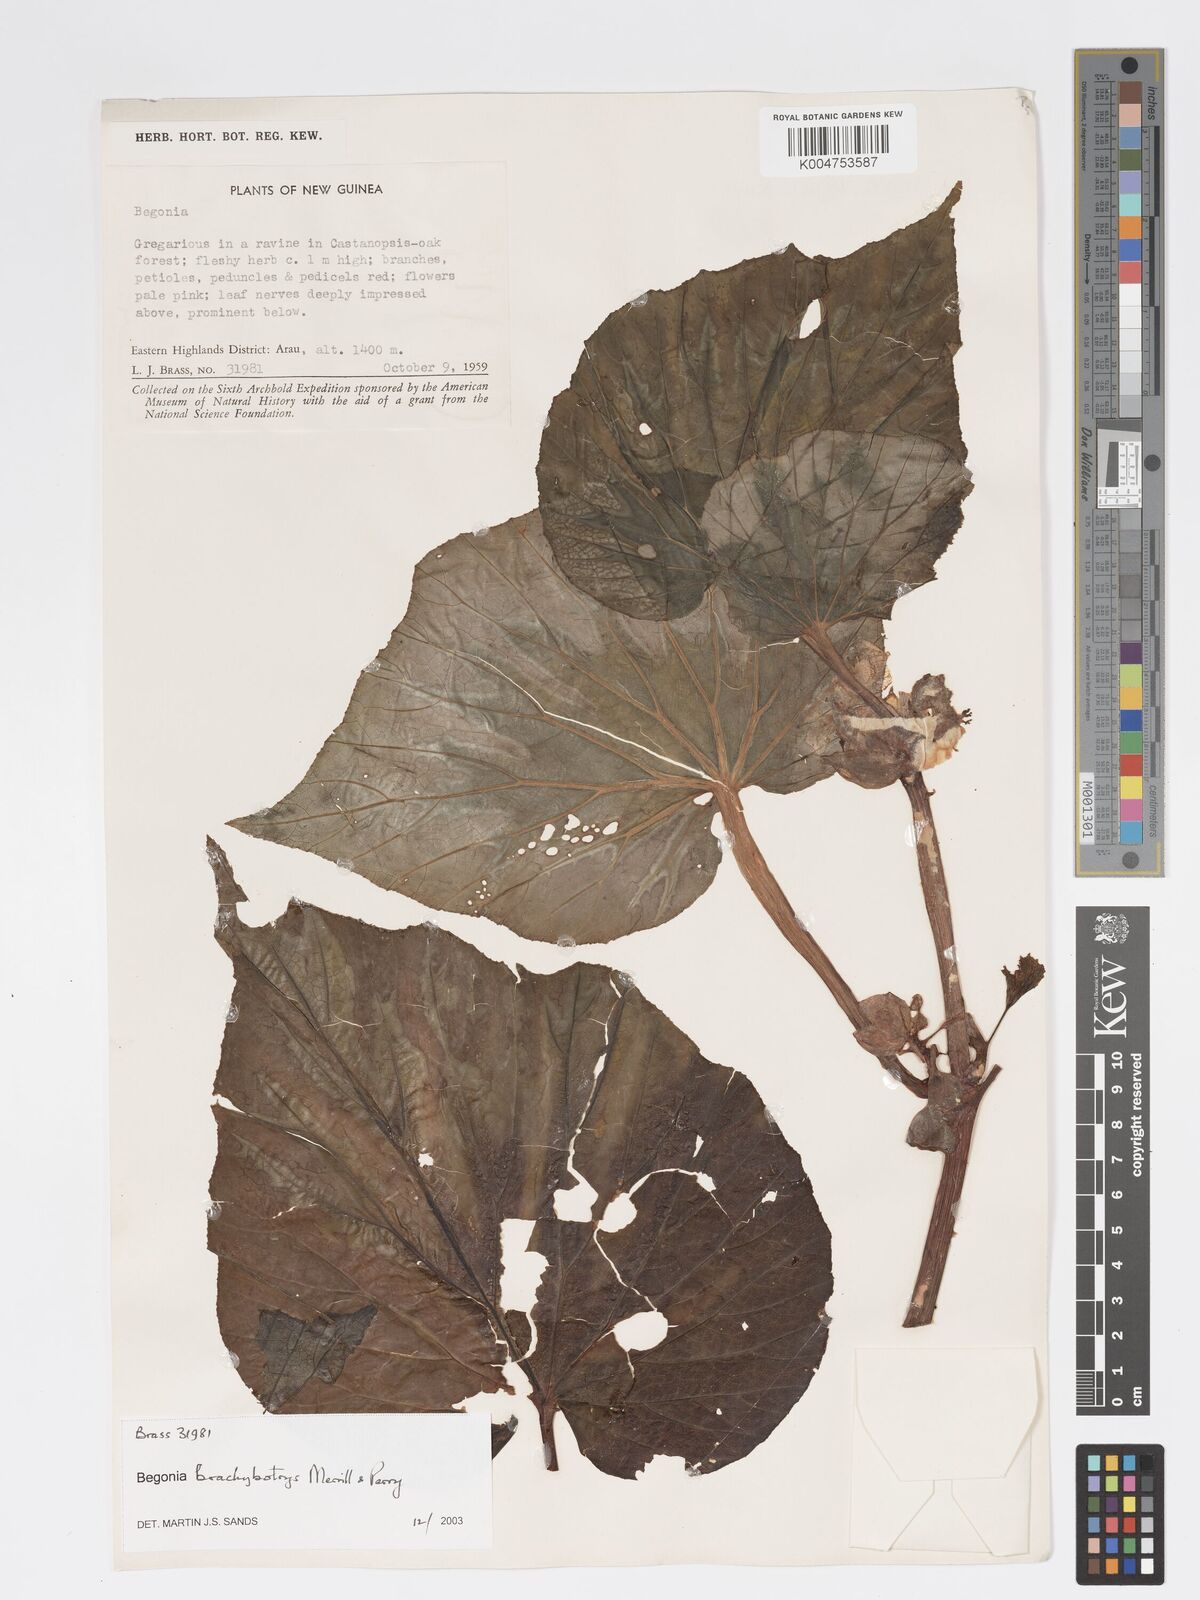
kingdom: Plantae
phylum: Tracheophyta
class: Magnoliopsida
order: Cucurbitales
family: Begoniaceae
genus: Begonia
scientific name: Begonia brachybotrys
